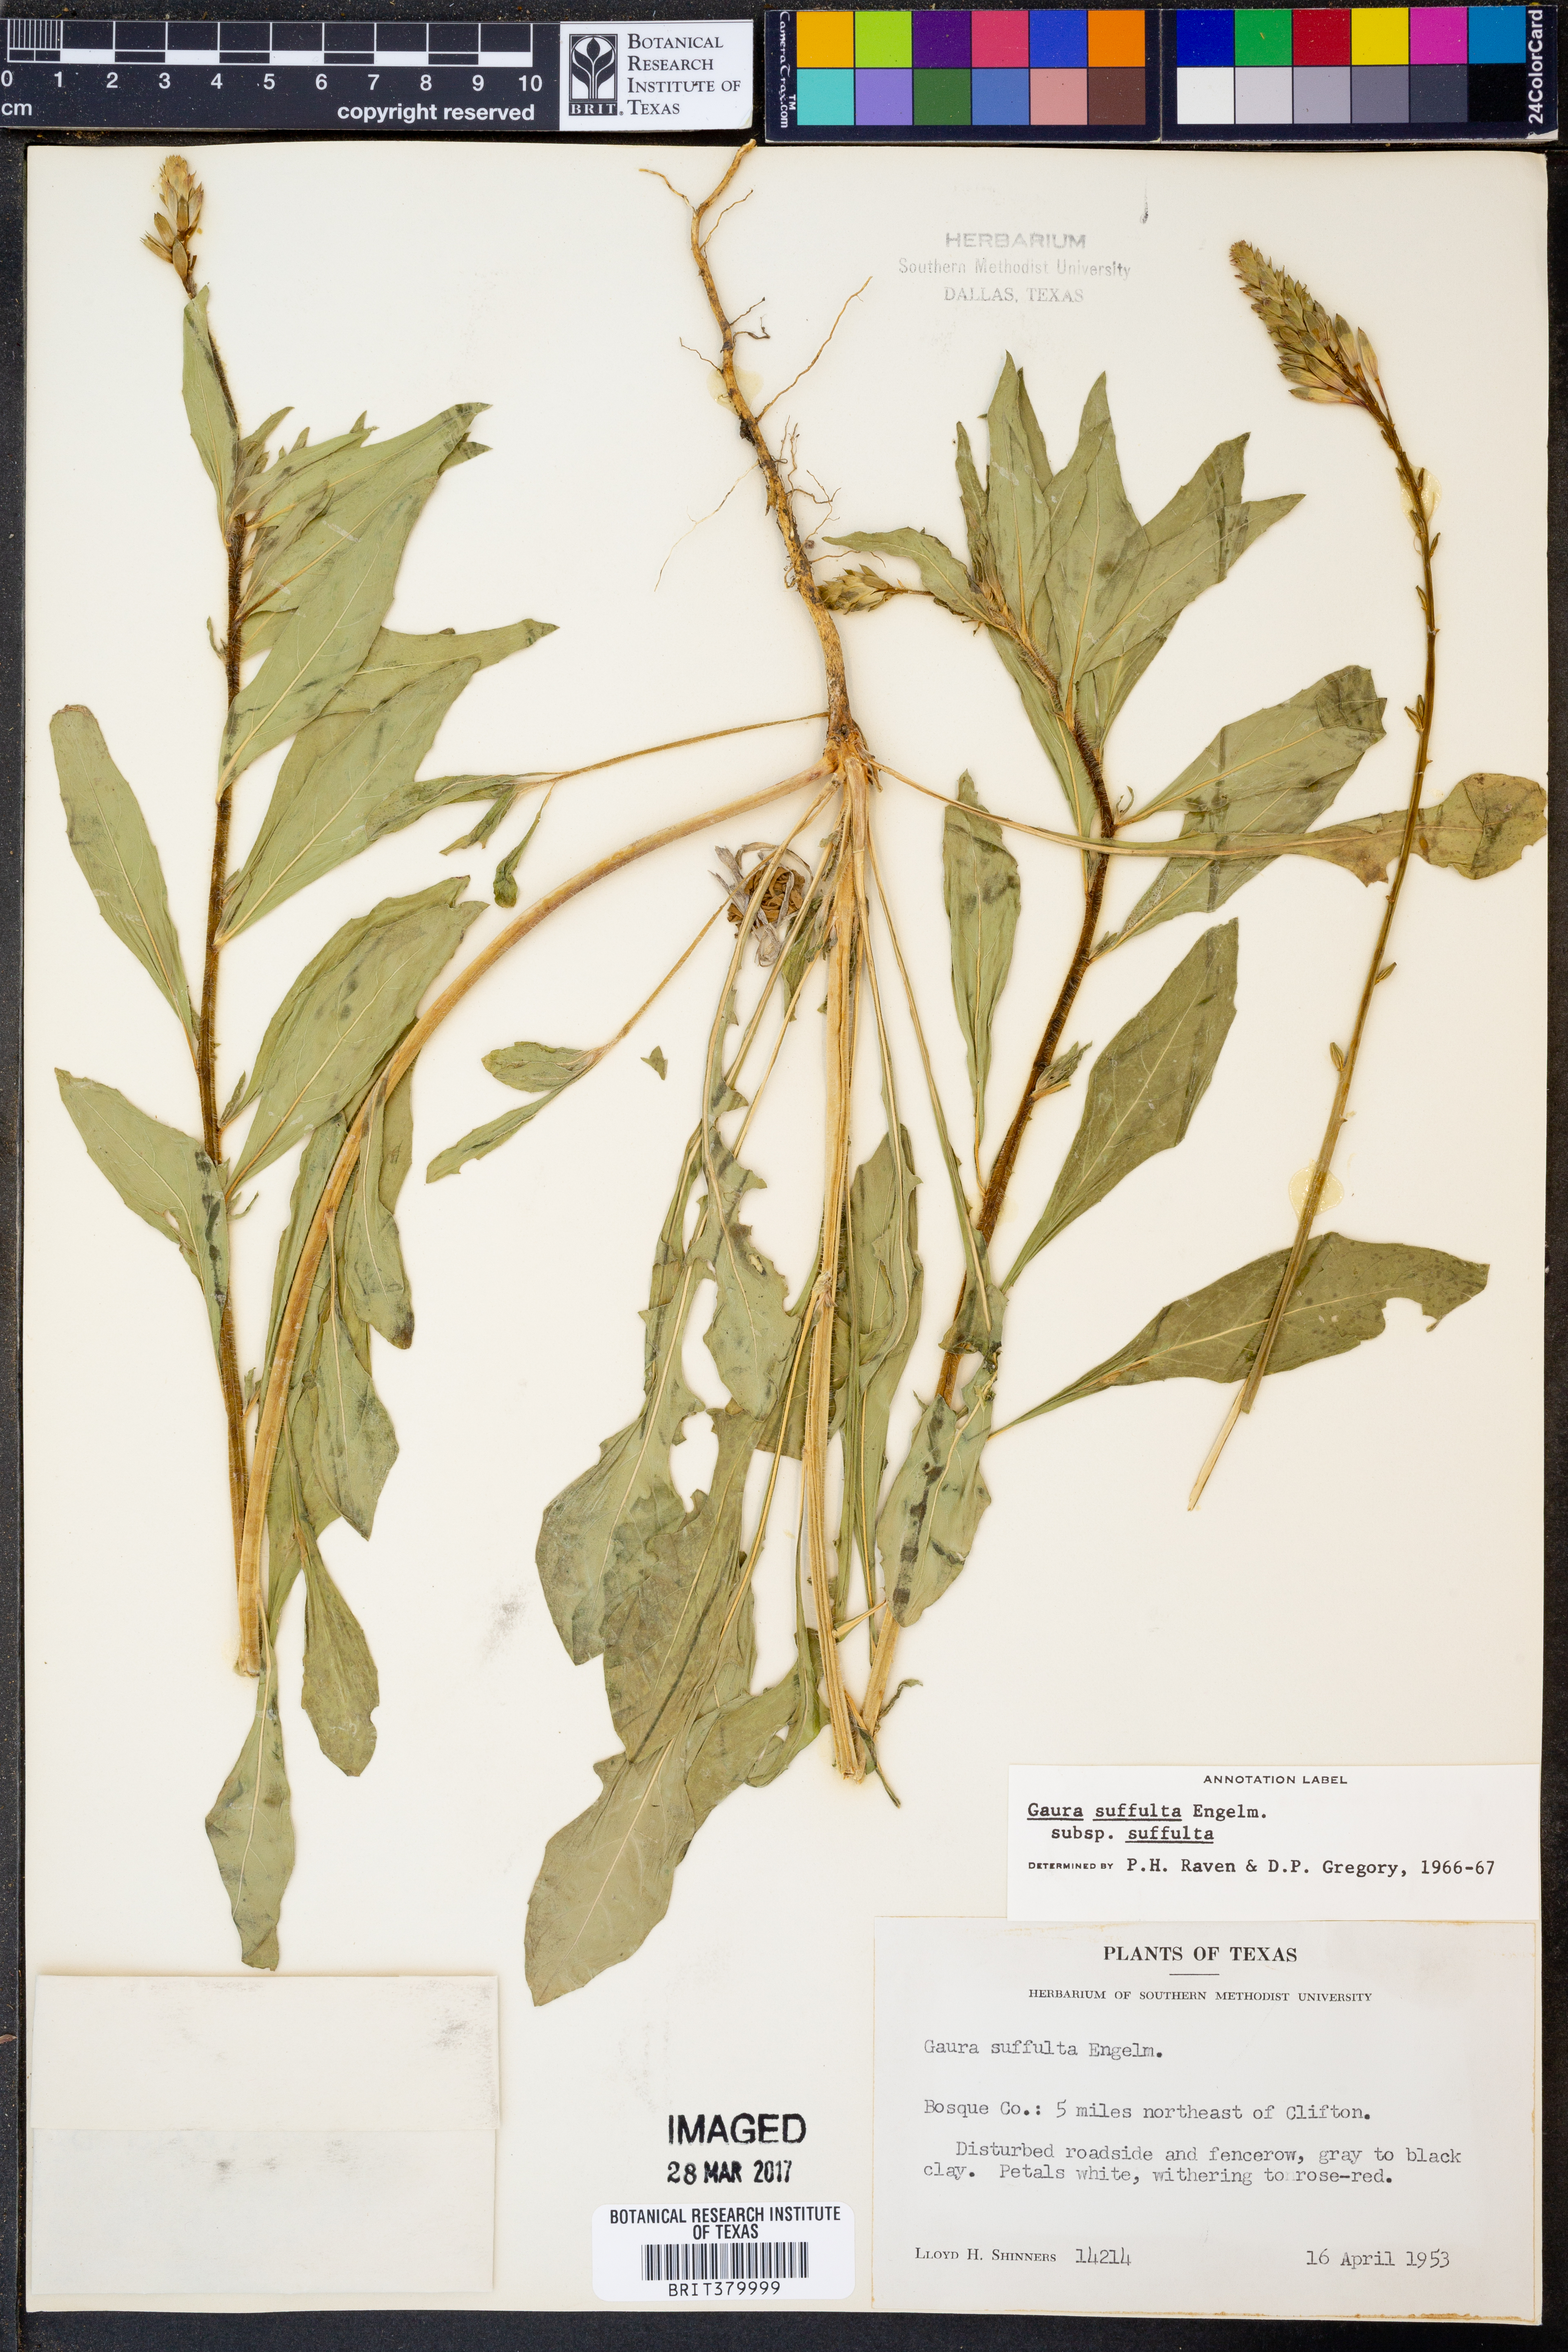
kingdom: Plantae
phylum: Tracheophyta
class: Magnoliopsida
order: Myrtales
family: Onagraceae
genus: Oenothera
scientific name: Oenothera suffulta
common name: Kisses
